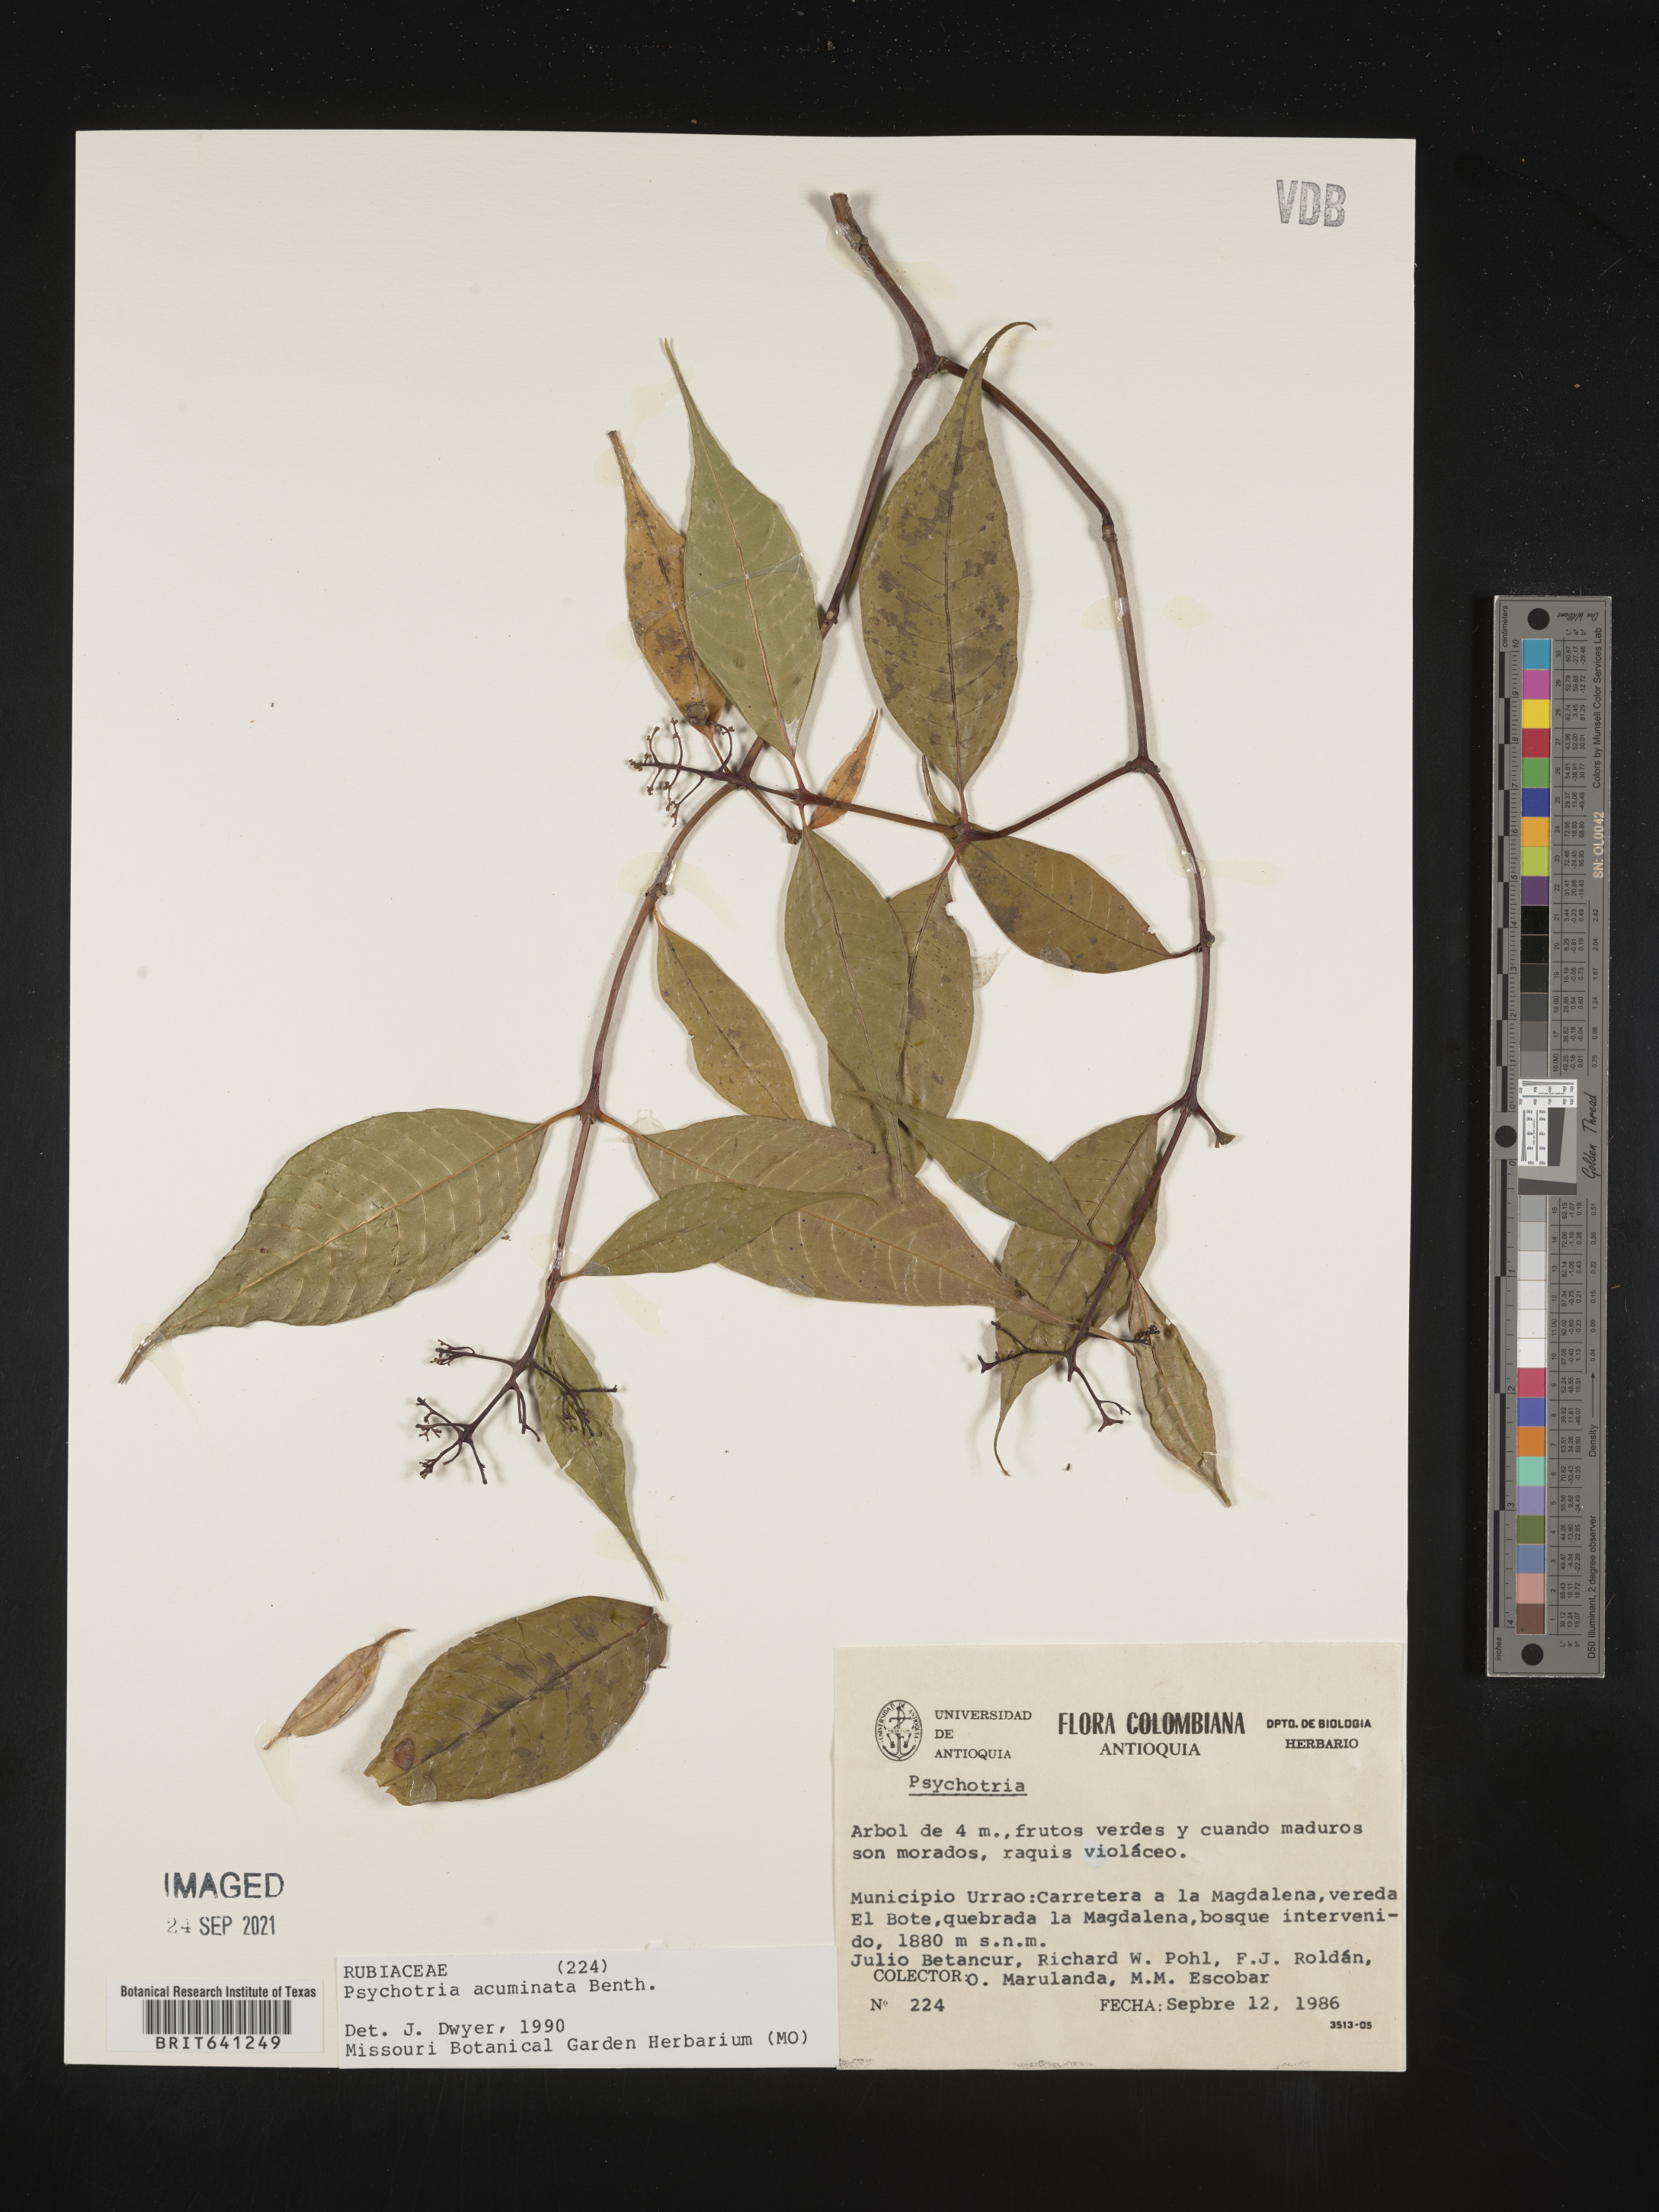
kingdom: Plantae
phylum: Tracheophyta
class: Magnoliopsida
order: Gentianales
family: Rubiaceae
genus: Psychotria
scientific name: Psychotria
